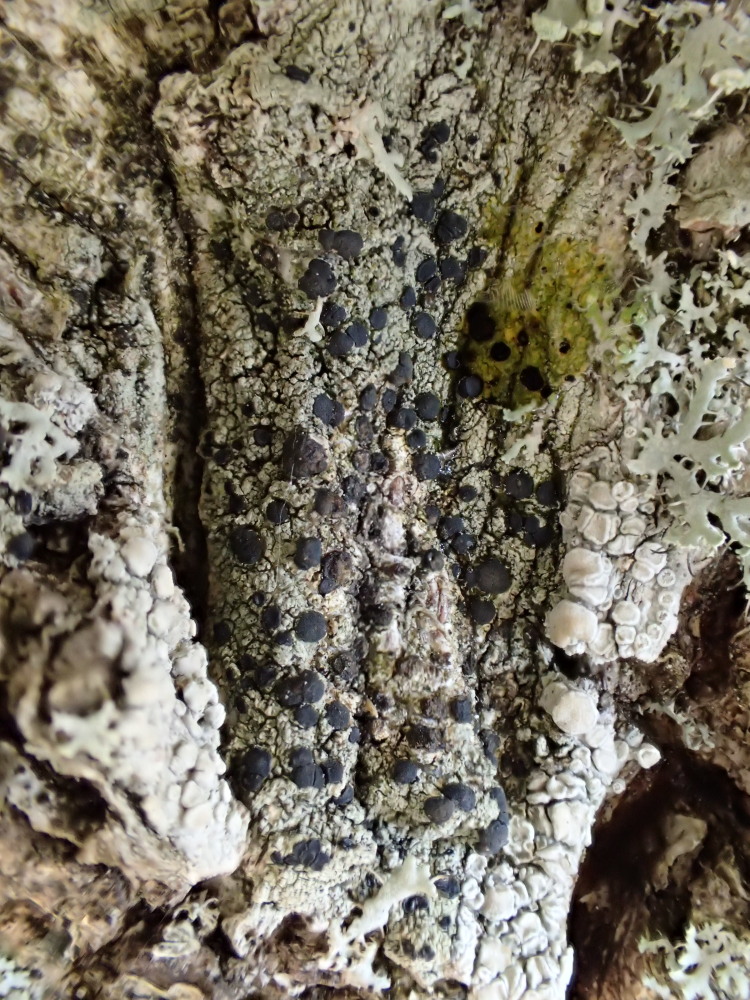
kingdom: Fungi
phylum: Ascomycota
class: Lecanoromycetes
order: Lecanorales
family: Lecanoraceae
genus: Lecidella
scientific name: Lecidella elaeochroma
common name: grågrøn skivelav
